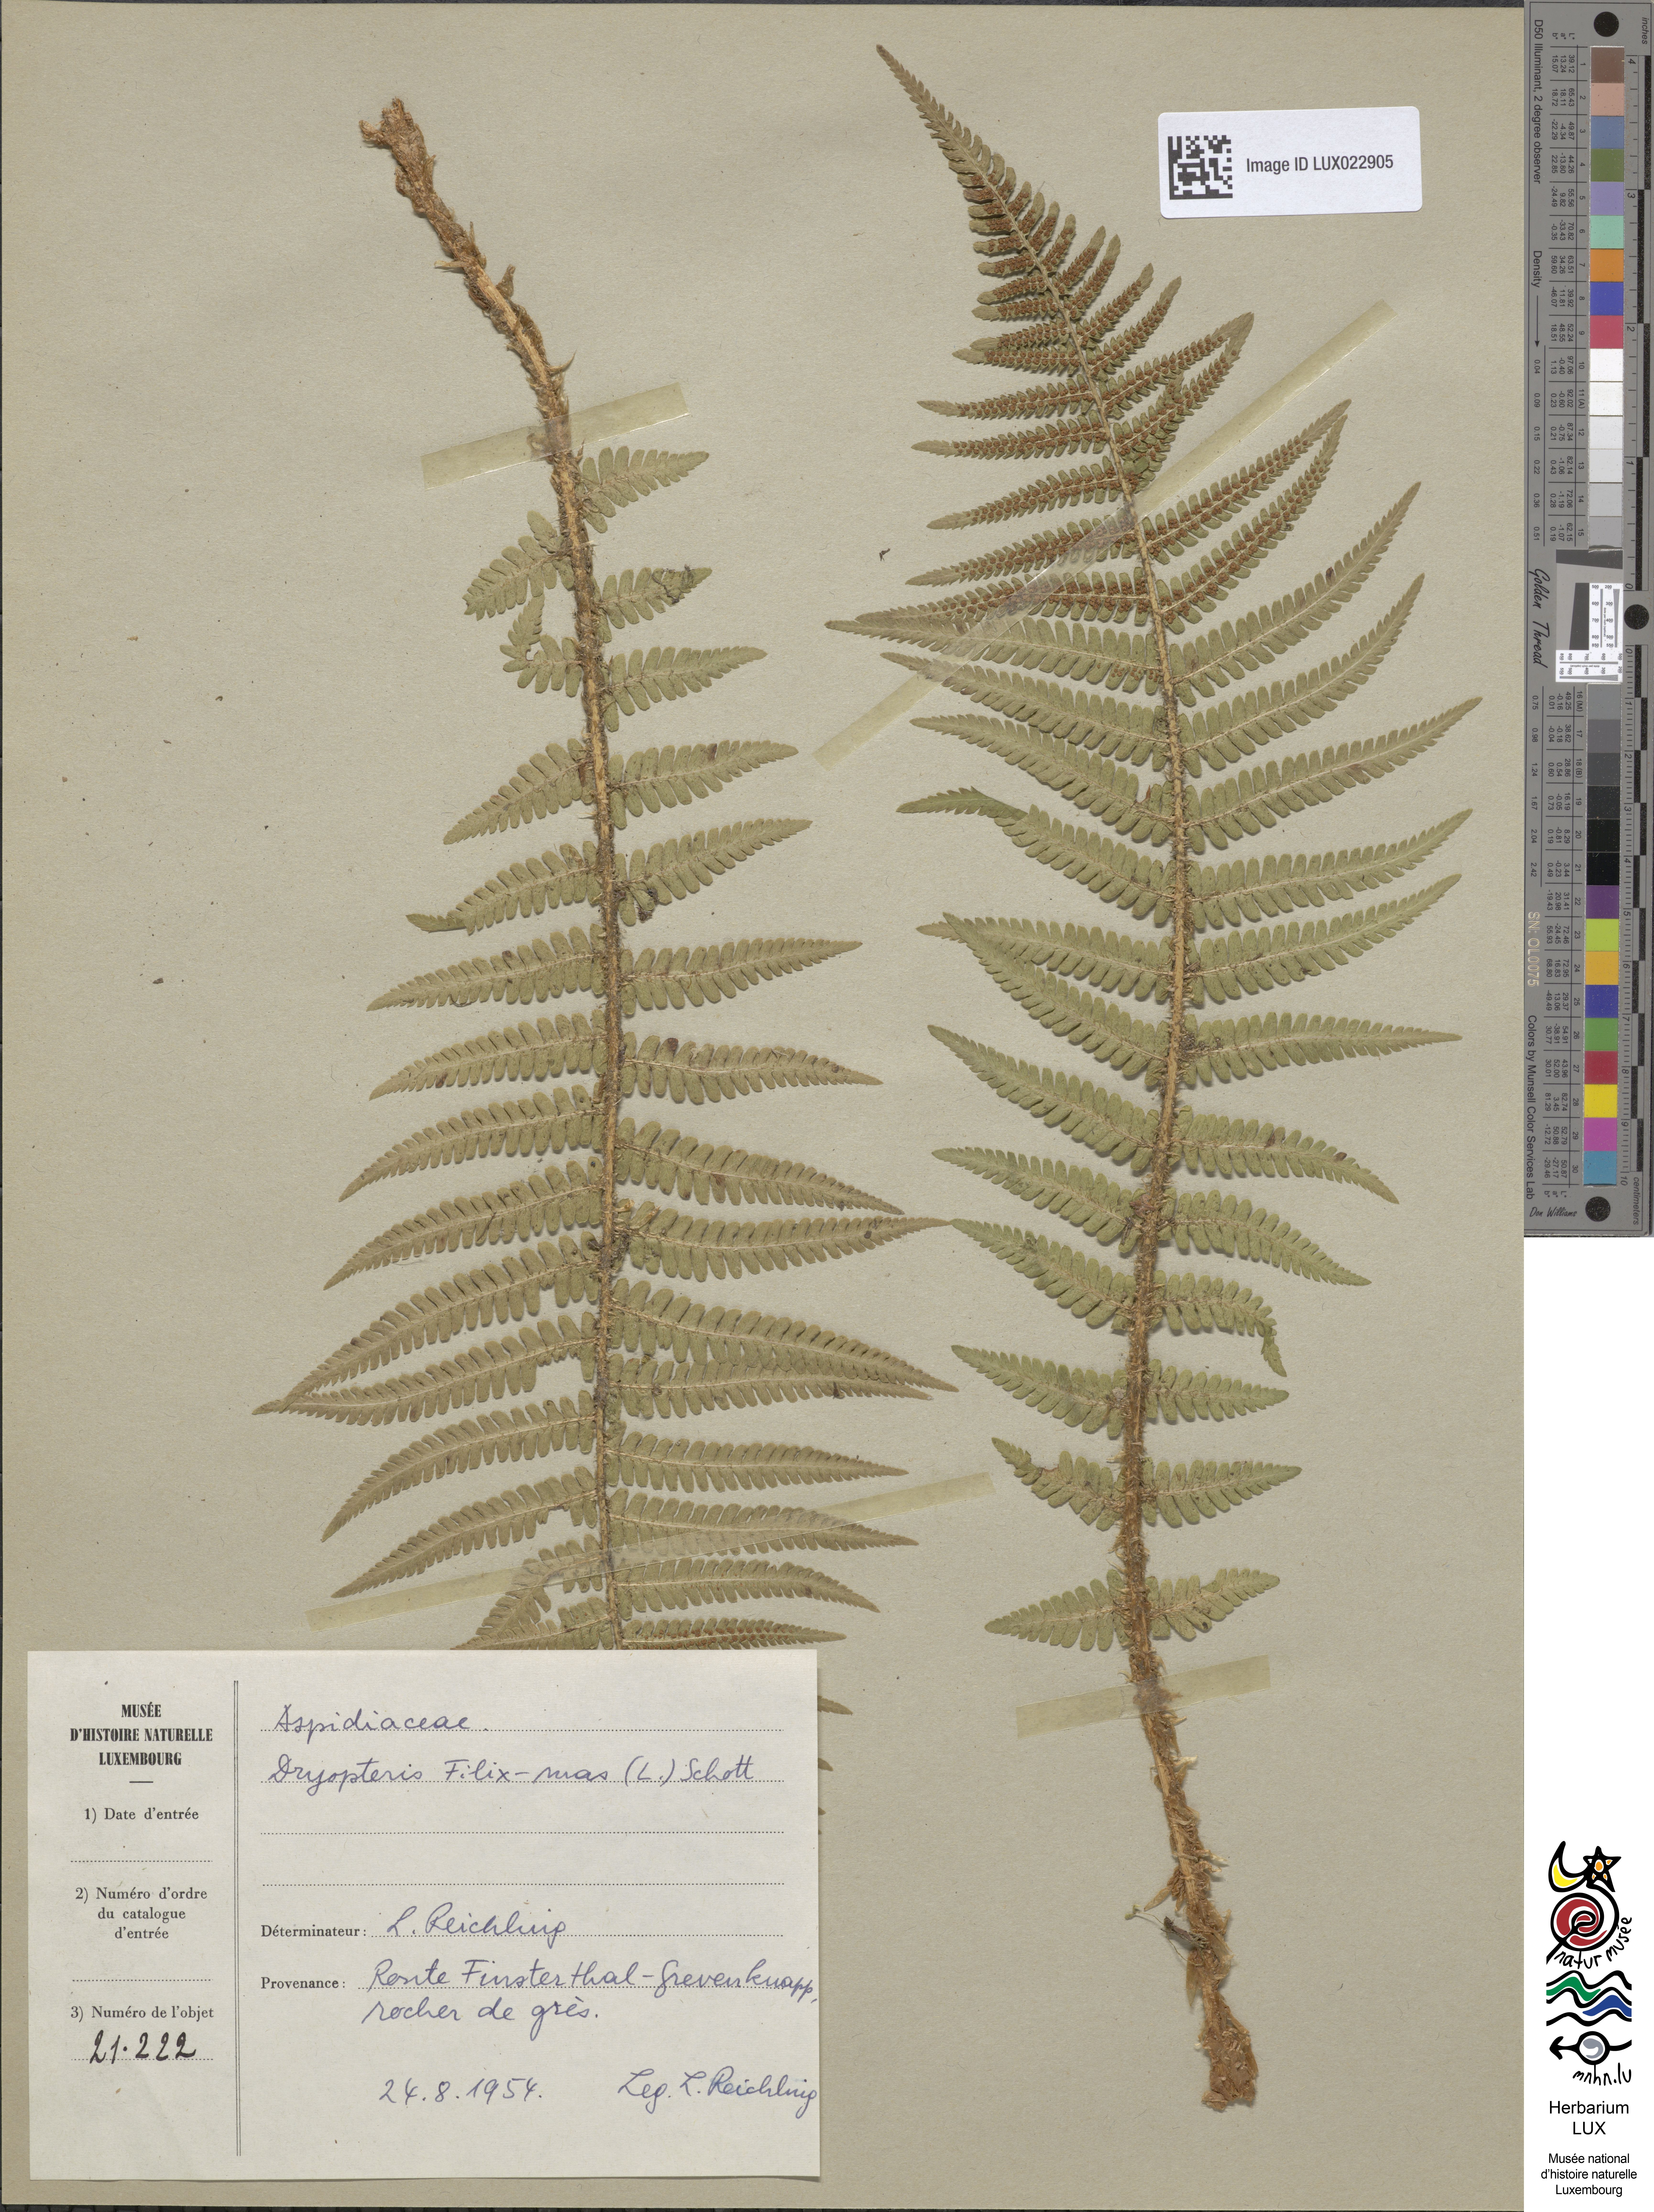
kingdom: Plantae
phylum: Tracheophyta
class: Polypodiopsida
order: Polypodiales
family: Dryopteridaceae
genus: Dryopteris
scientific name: Dryopteris filix-mas
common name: Male fern
